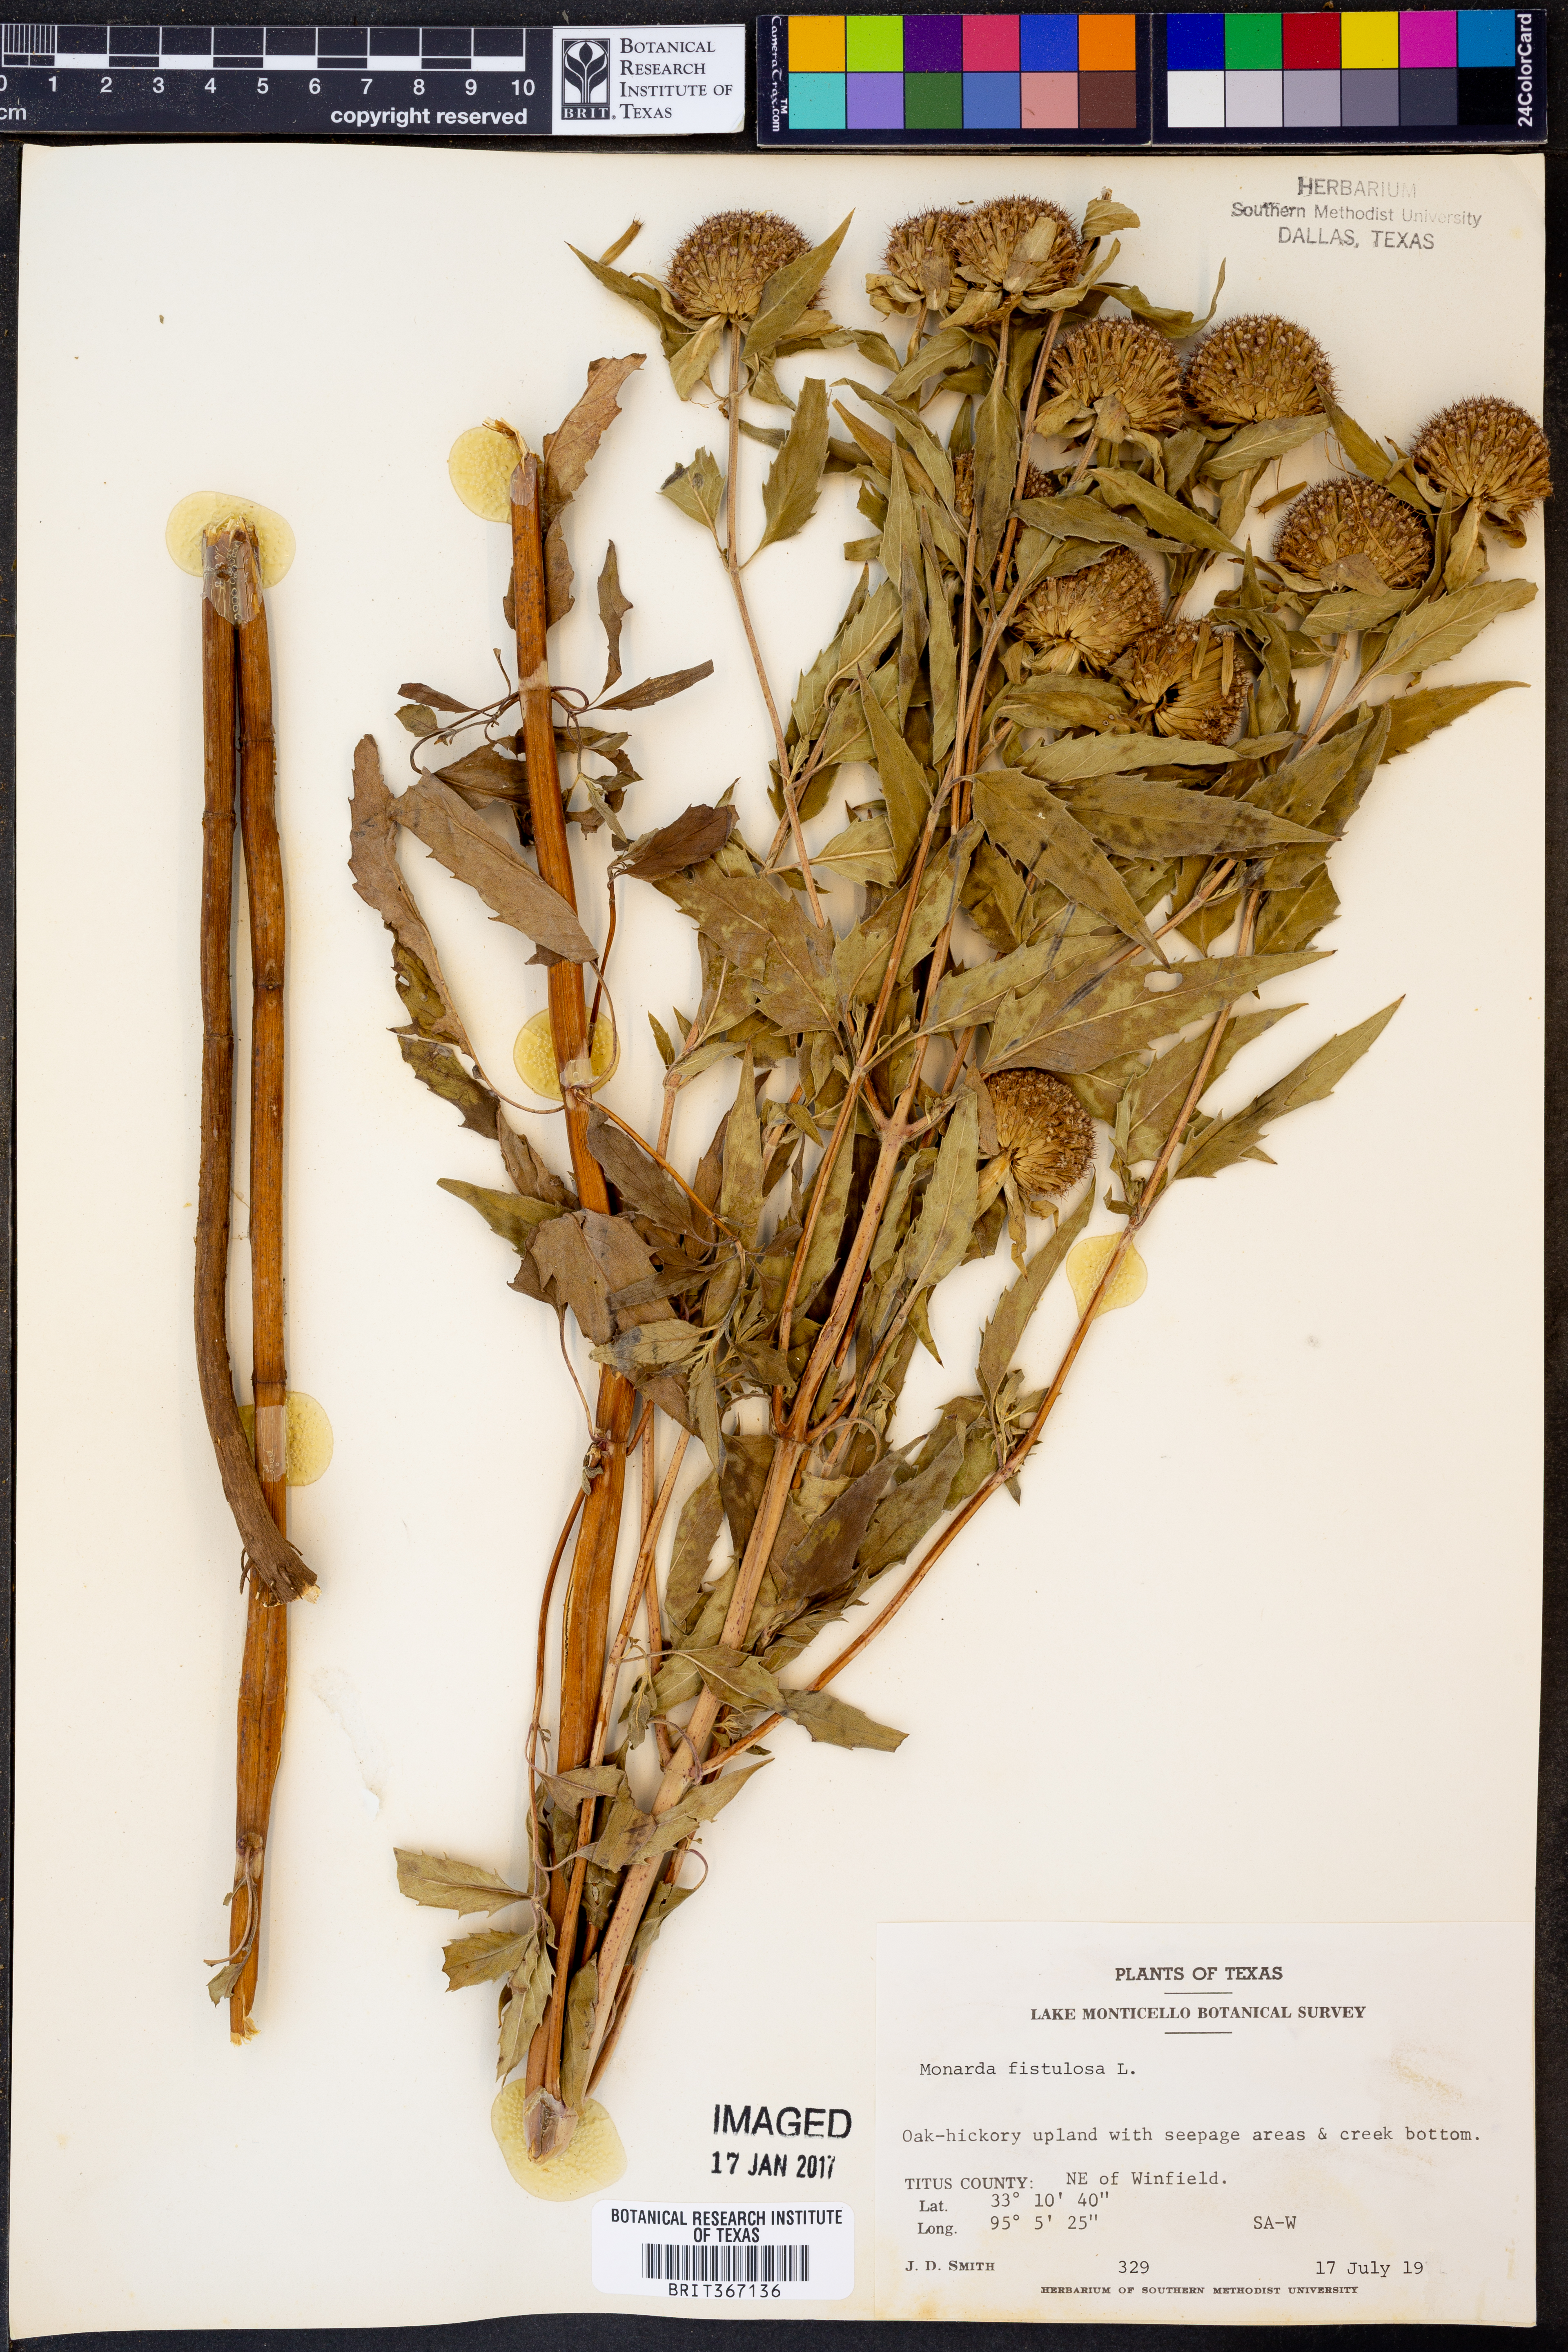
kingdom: Plantae
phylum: Tracheophyta
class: Magnoliopsida
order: Lamiales
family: Lamiaceae
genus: Monarda
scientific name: Monarda fistulosa
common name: Purple beebalm
